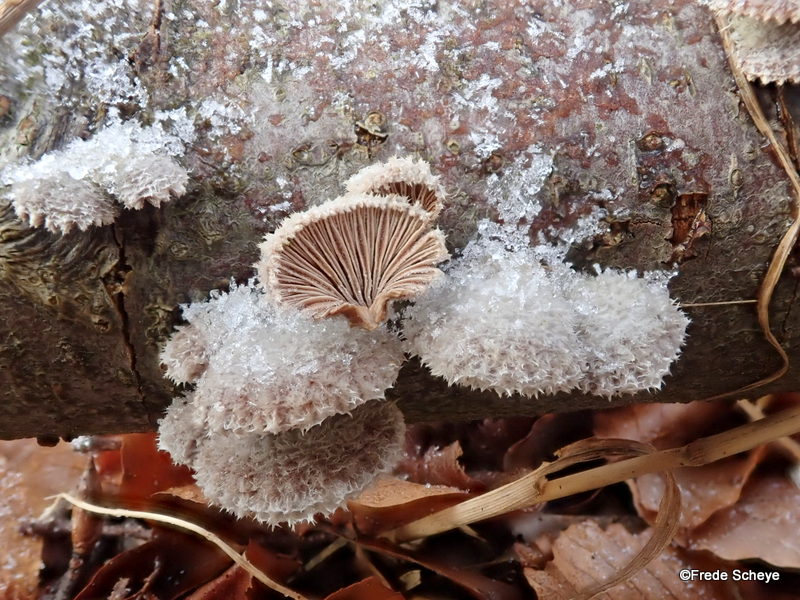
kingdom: Fungi
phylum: Basidiomycota
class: Agaricomycetes
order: Agaricales
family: Schizophyllaceae
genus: Schizophyllum
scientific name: Schizophyllum commune
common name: kløvblad
